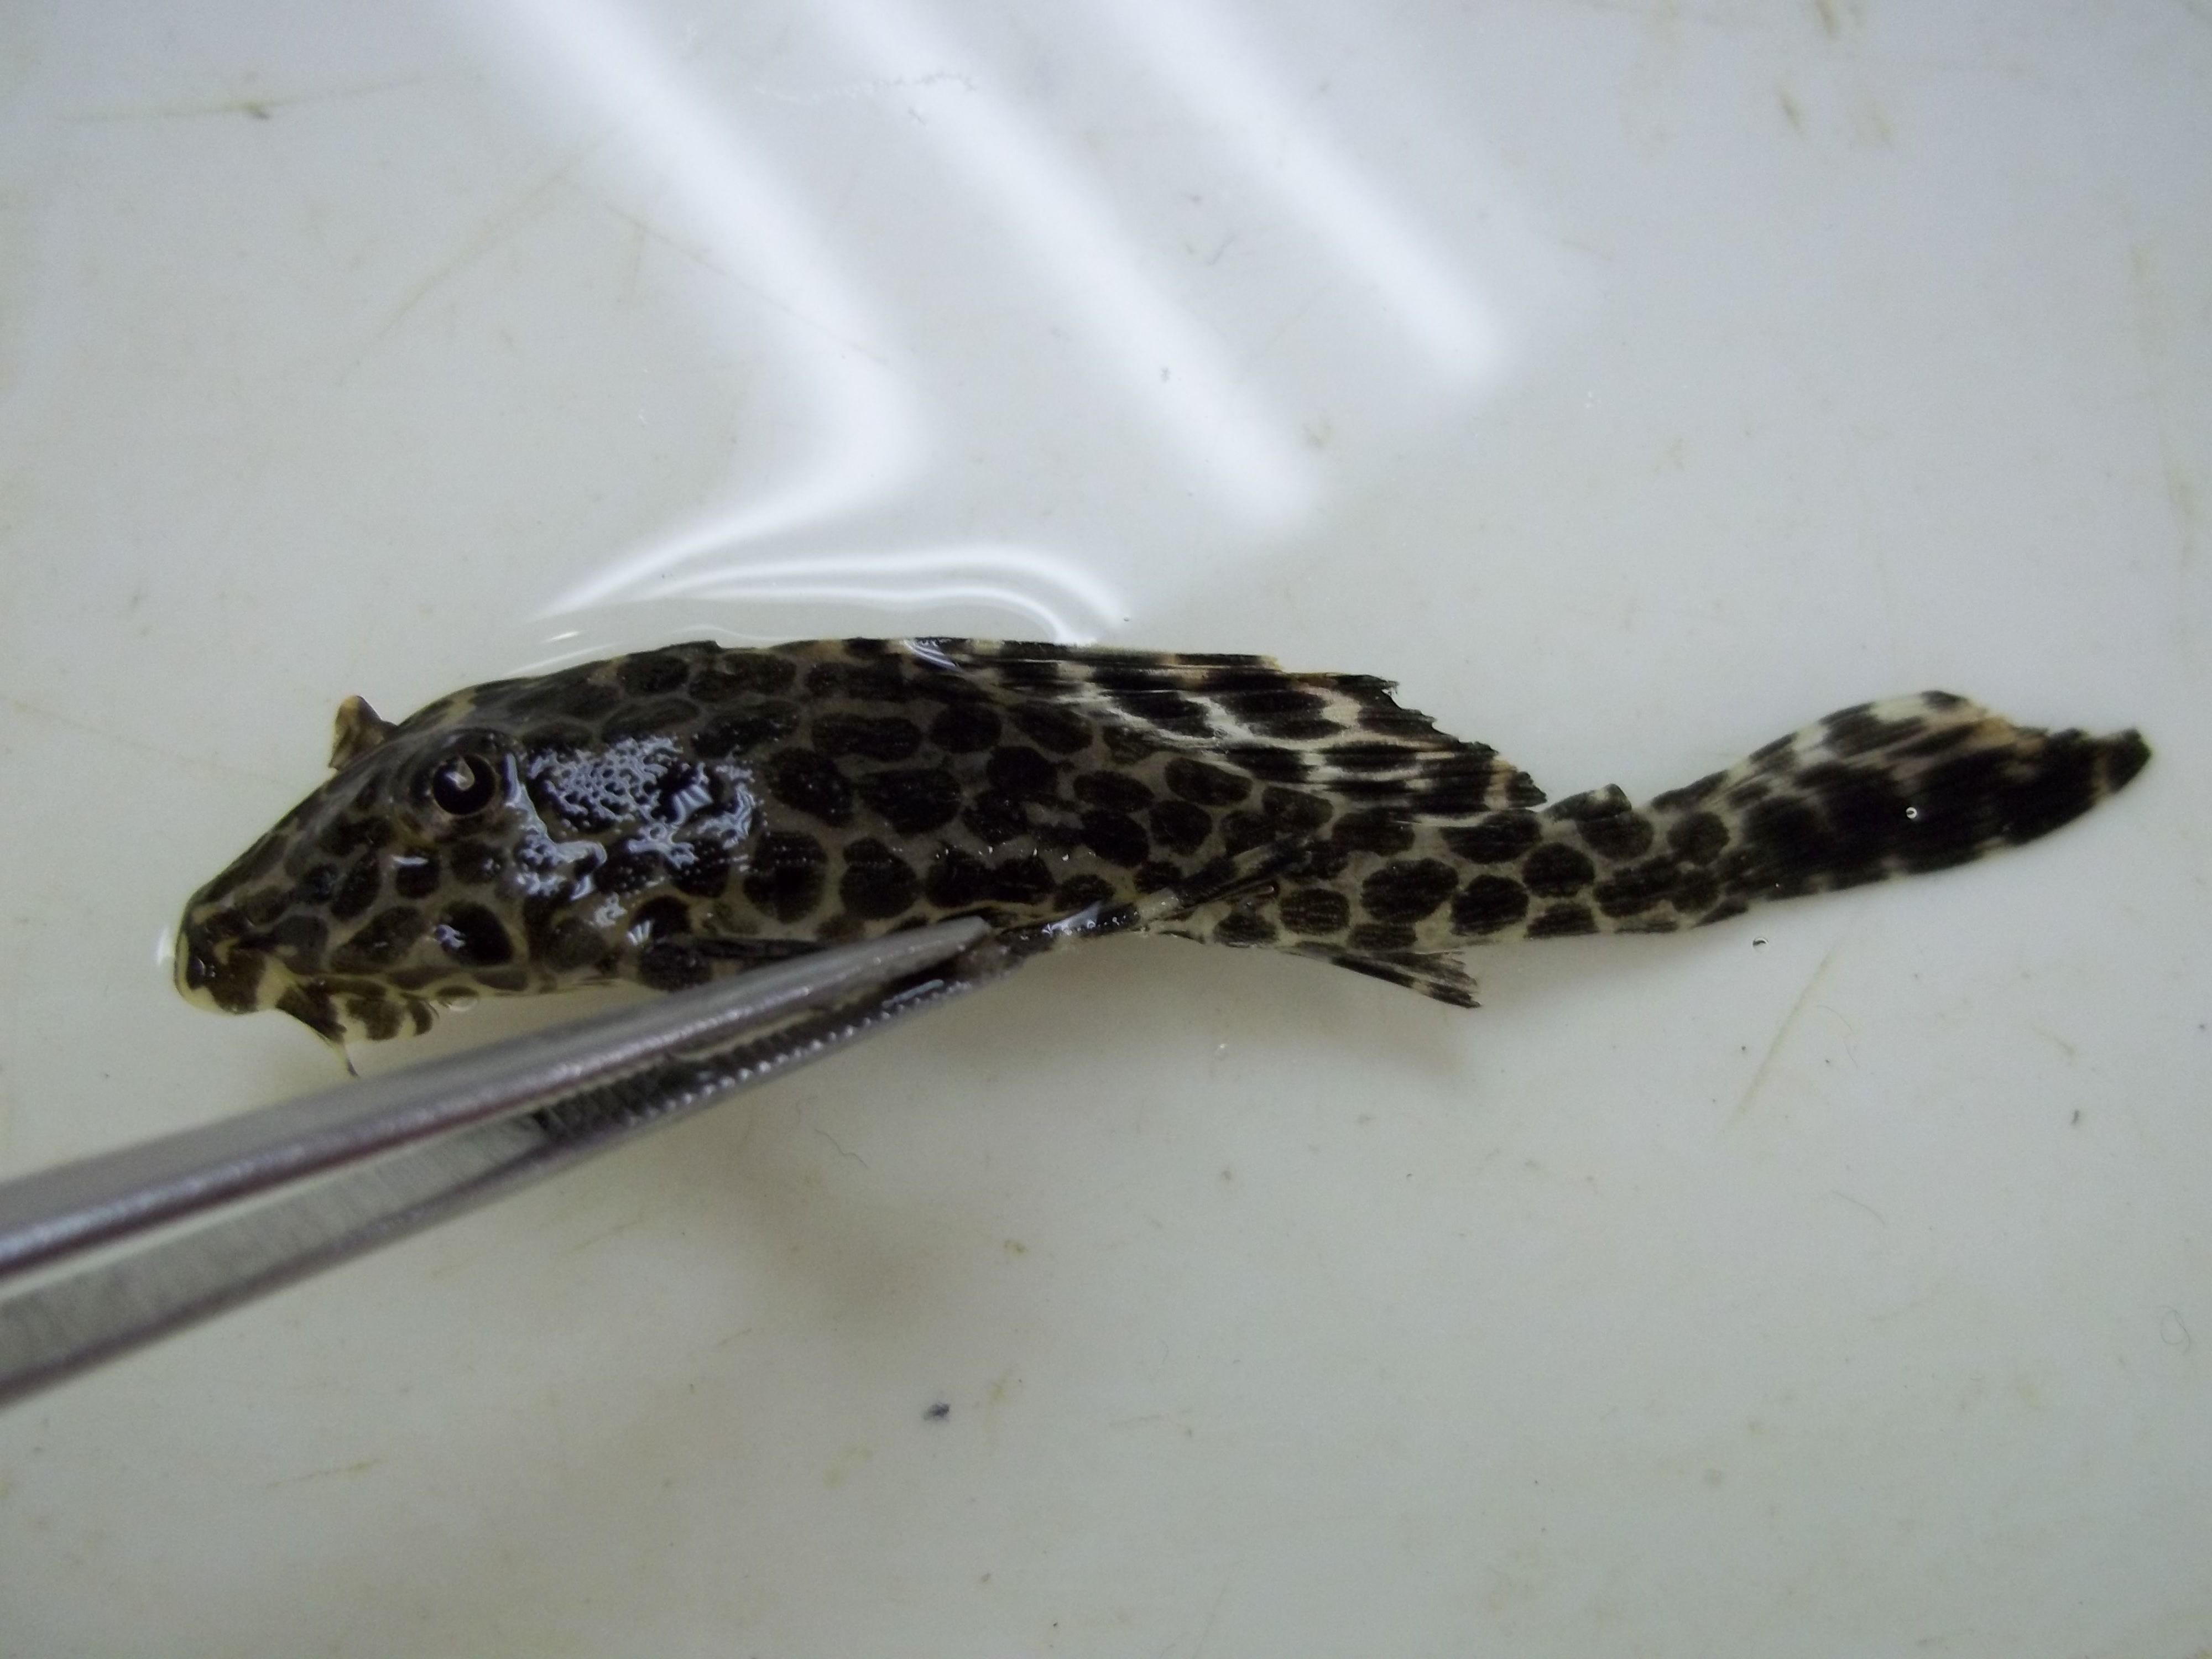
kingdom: Animalia
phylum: Chordata
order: Siluriformes
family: Loricariidae
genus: Pterygoplichthys
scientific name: Pterygoplichthys
